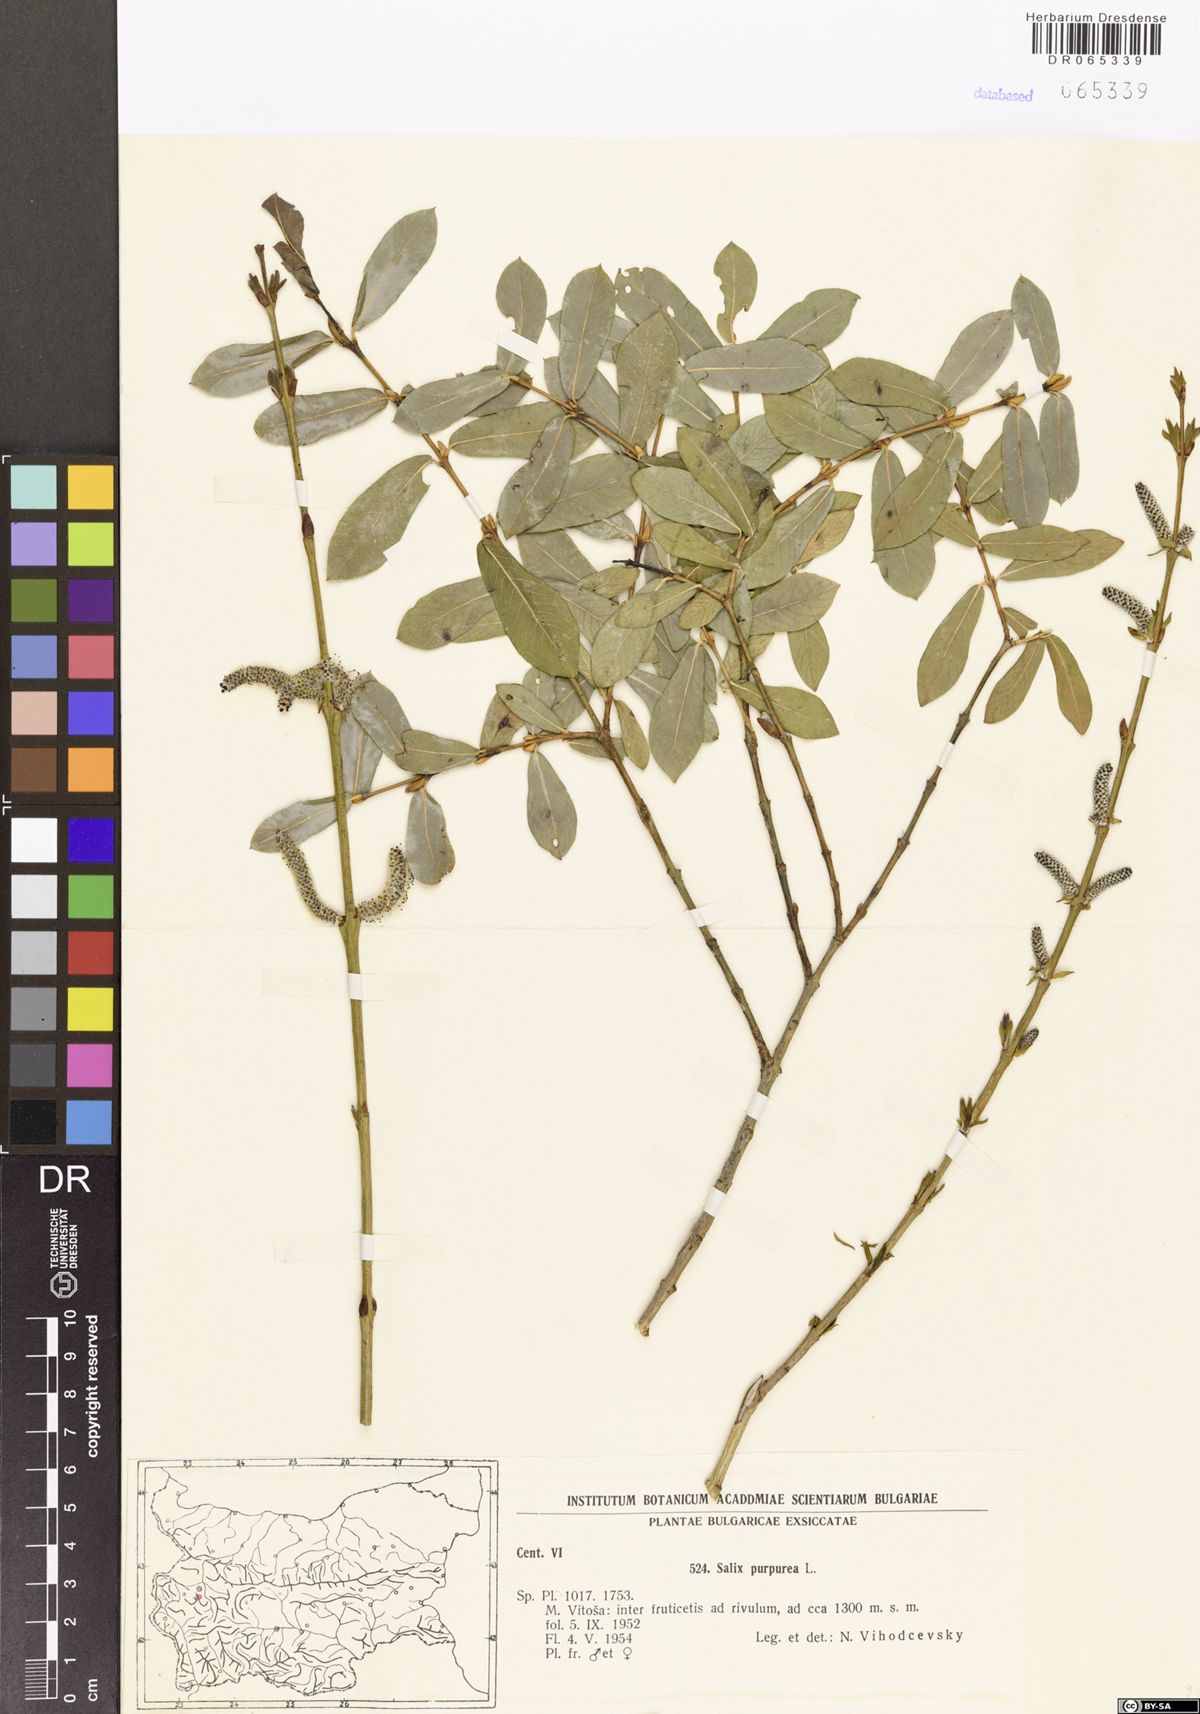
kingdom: Plantae
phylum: Tracheophyta
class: Magnoliopsida
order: Malpighiales
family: Salicaceae
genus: Salix
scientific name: Salix purpurea
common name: Purple willow
